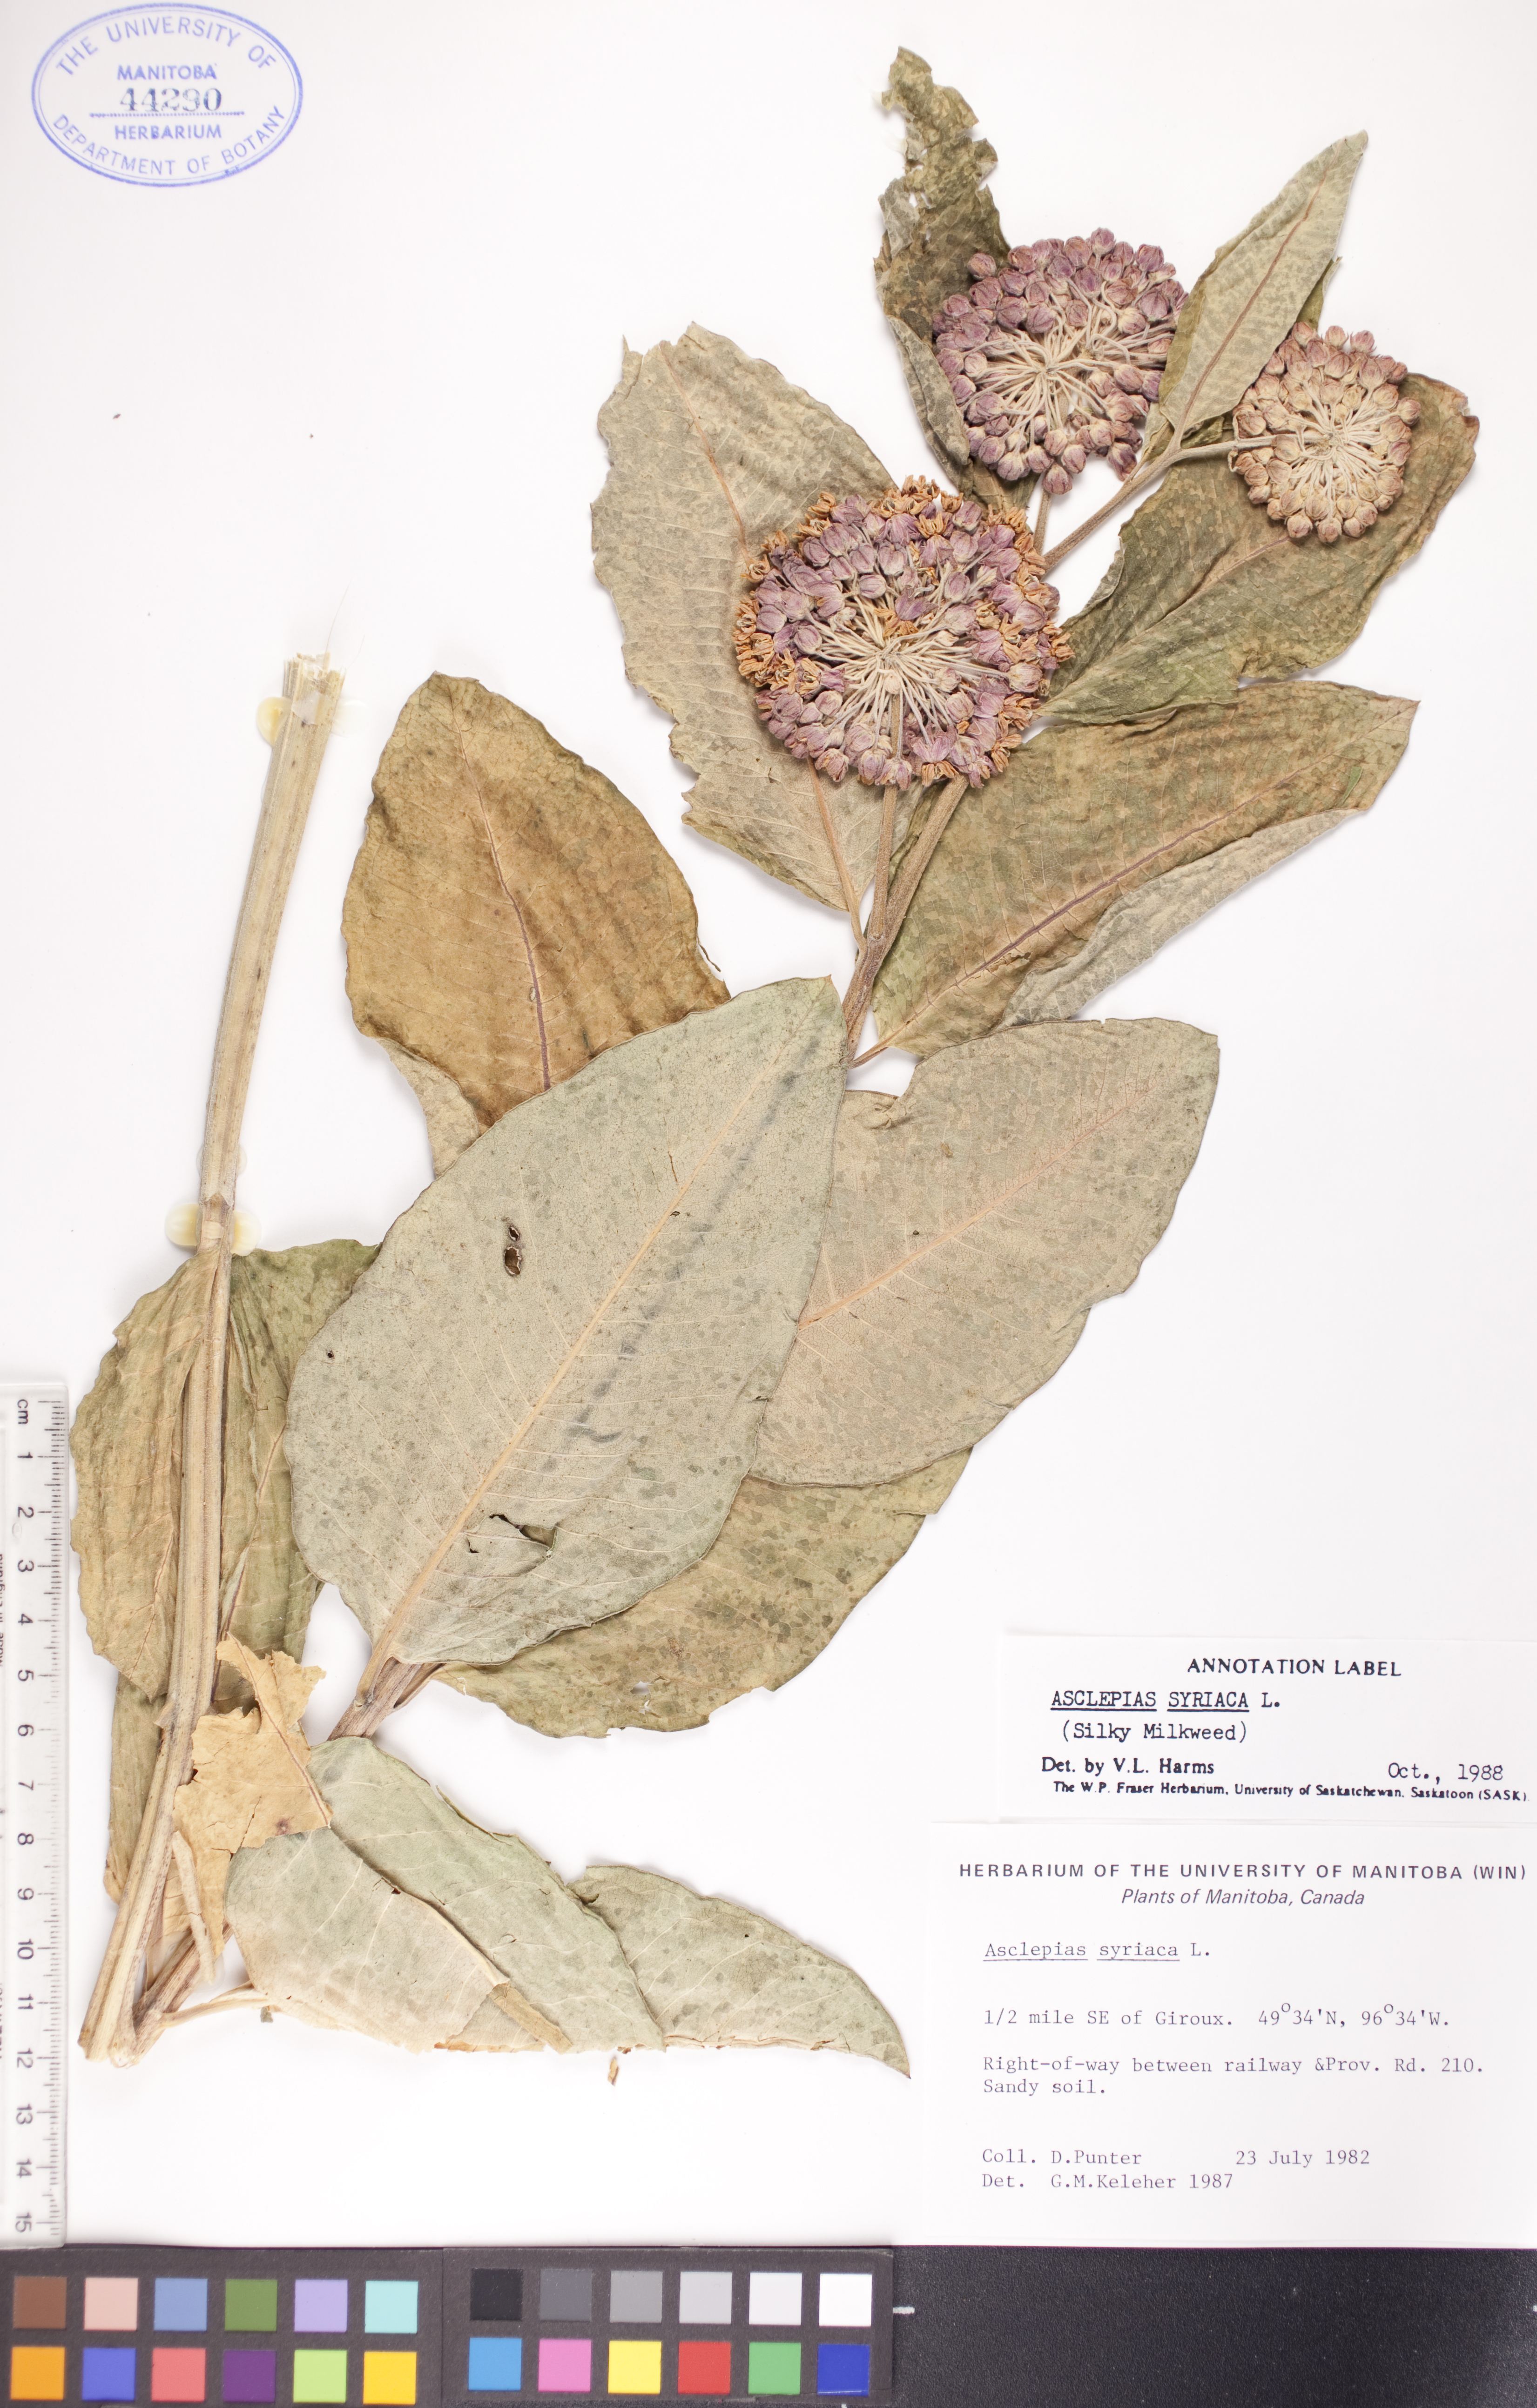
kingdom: Plantae
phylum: Tracheophyta
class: Magnoliopsida
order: Gentianales
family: Apocynaceae
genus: Asclepias
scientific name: Asclepias syriaca
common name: Common milkweed
